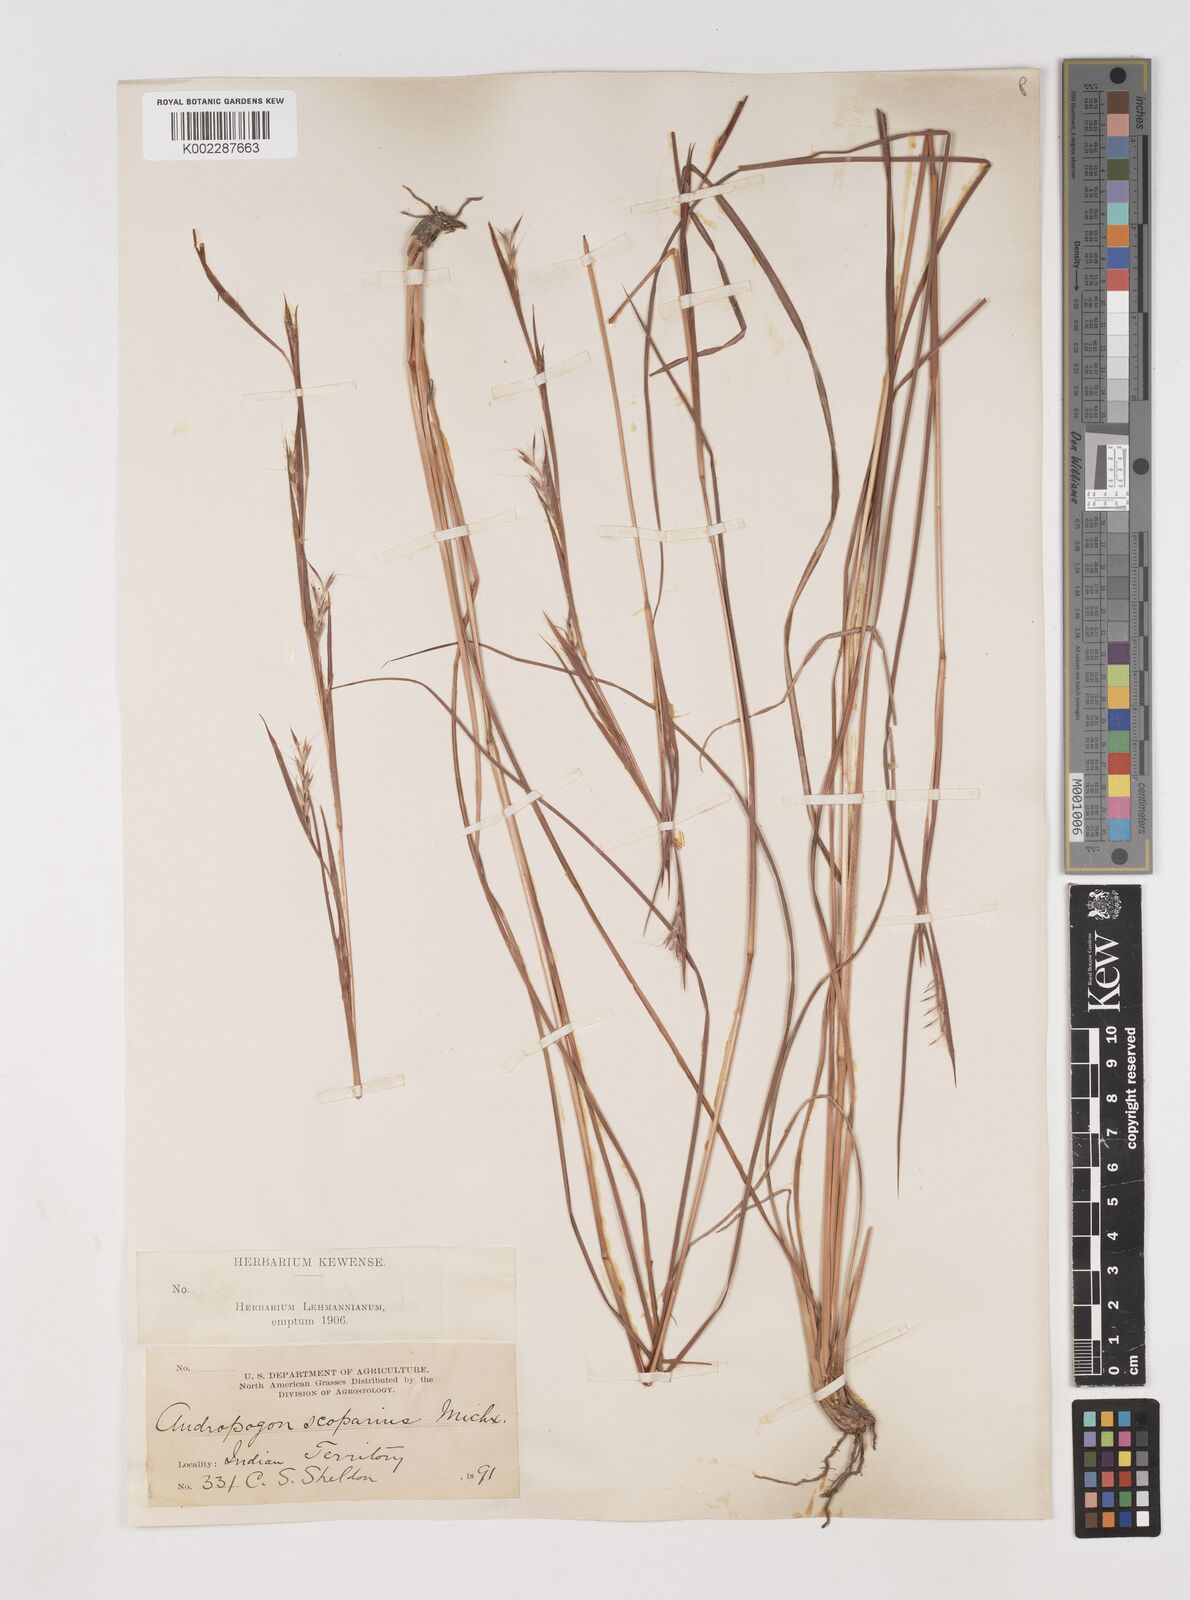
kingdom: Plantae
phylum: Tracheophyta
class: Liliopsida
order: Poales
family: Poaceae
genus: Schizachyrium
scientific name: Schizachyrium scoparium
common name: Little bluestem
